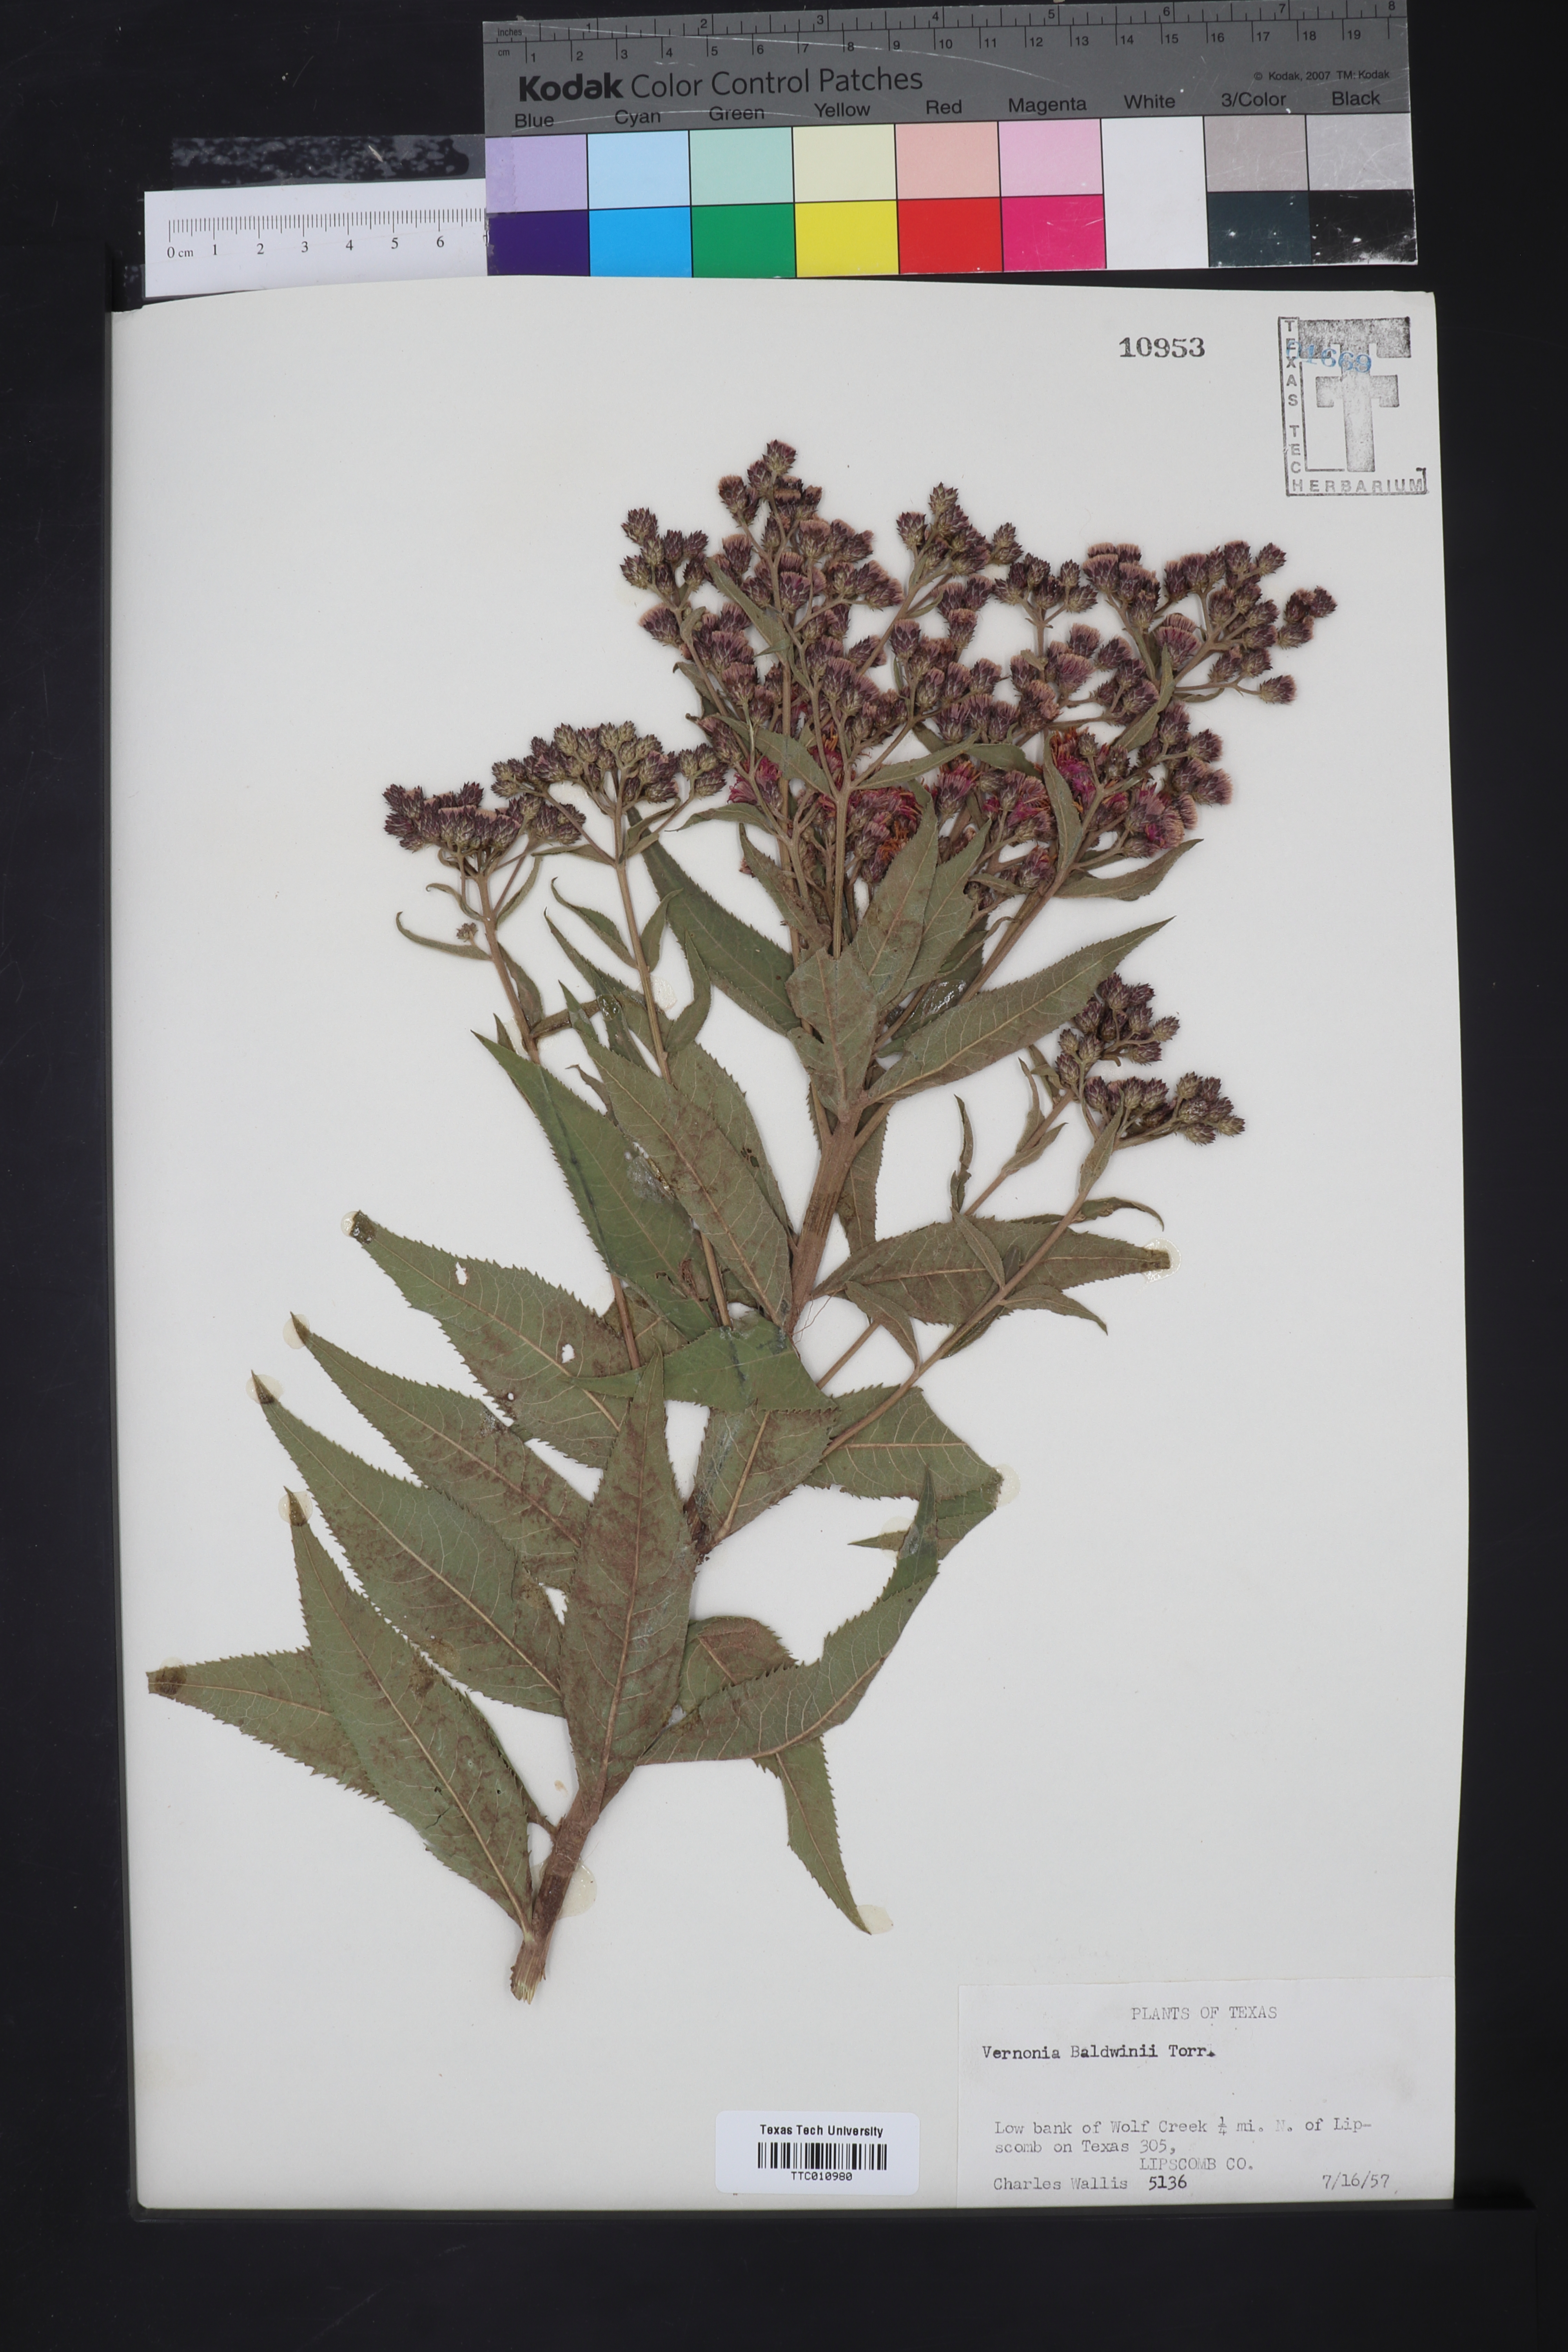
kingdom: Plantae
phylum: Tracheophyta
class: Magnoliopsida
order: Asterales
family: Asteraceae
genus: Vernonia
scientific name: Vernonia baldwinii
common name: Western ironweed
